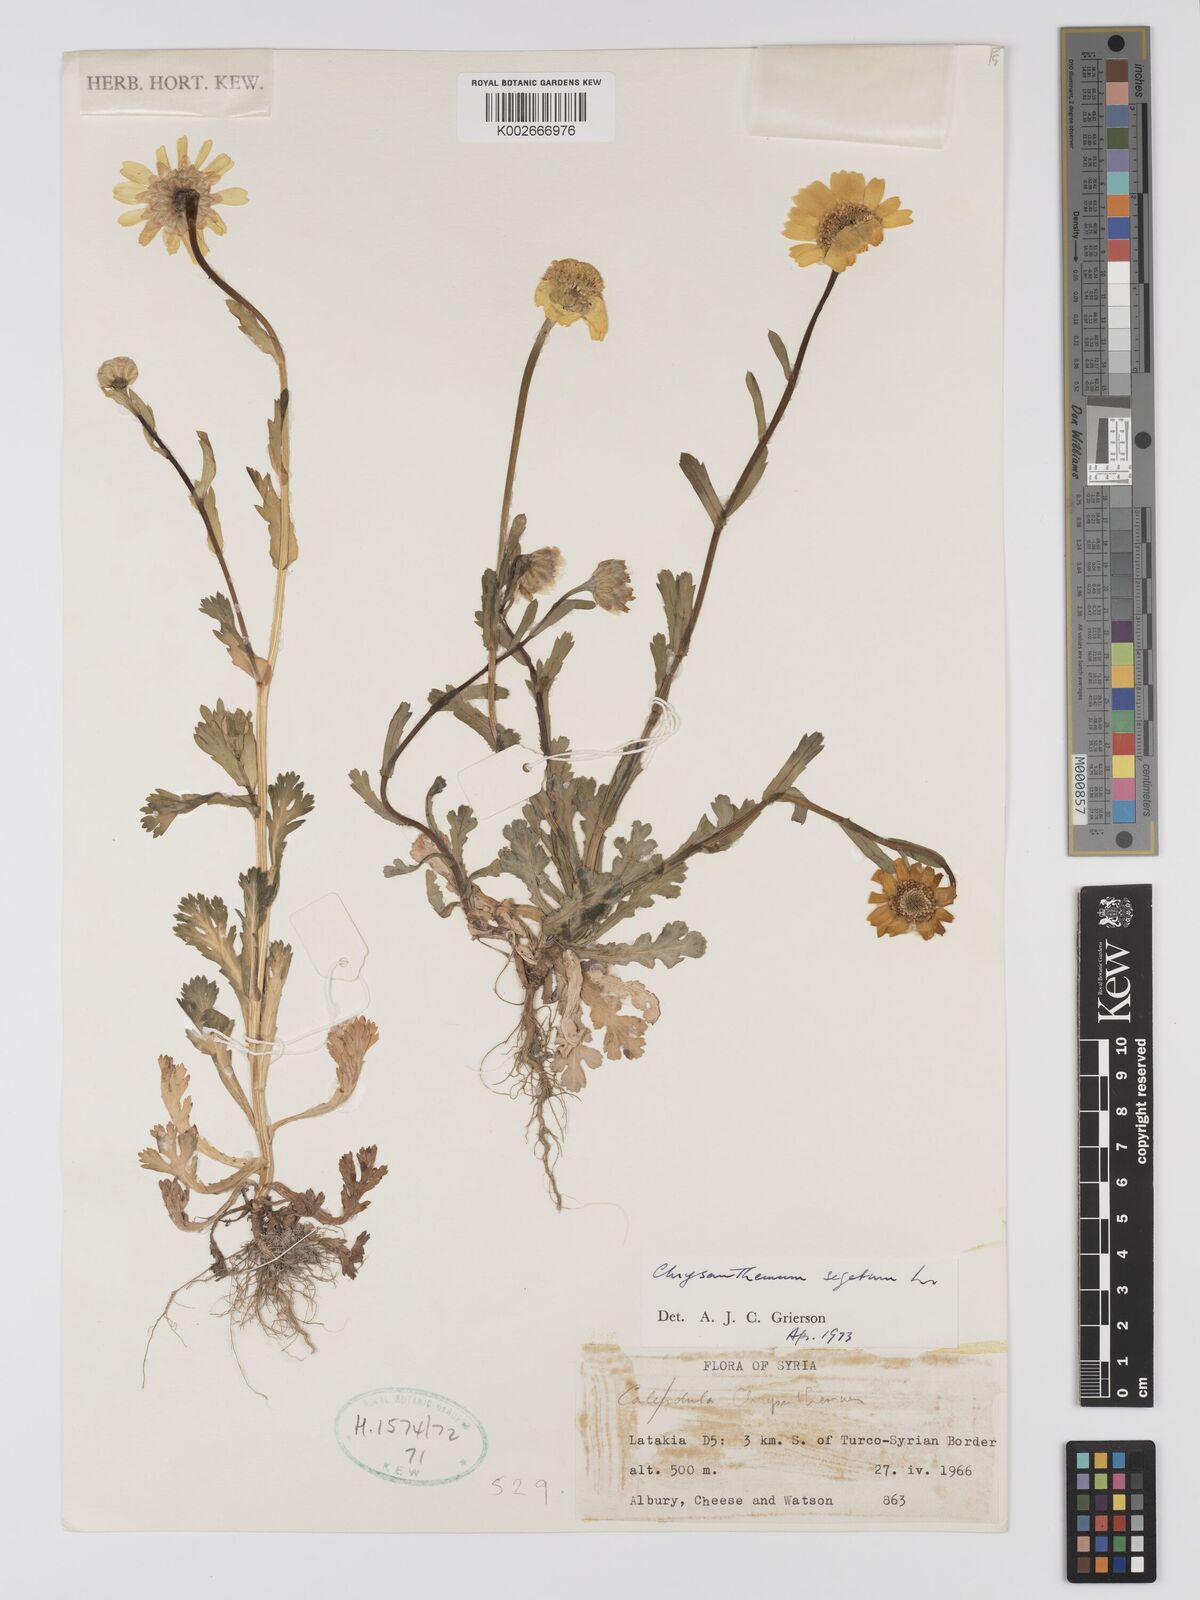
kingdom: Plantae
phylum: Tracheophyta
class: Magnoliopsida
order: Asterales
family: Asteraceae
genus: Glebionis
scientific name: Glebionis segetum
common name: Corndaisy
